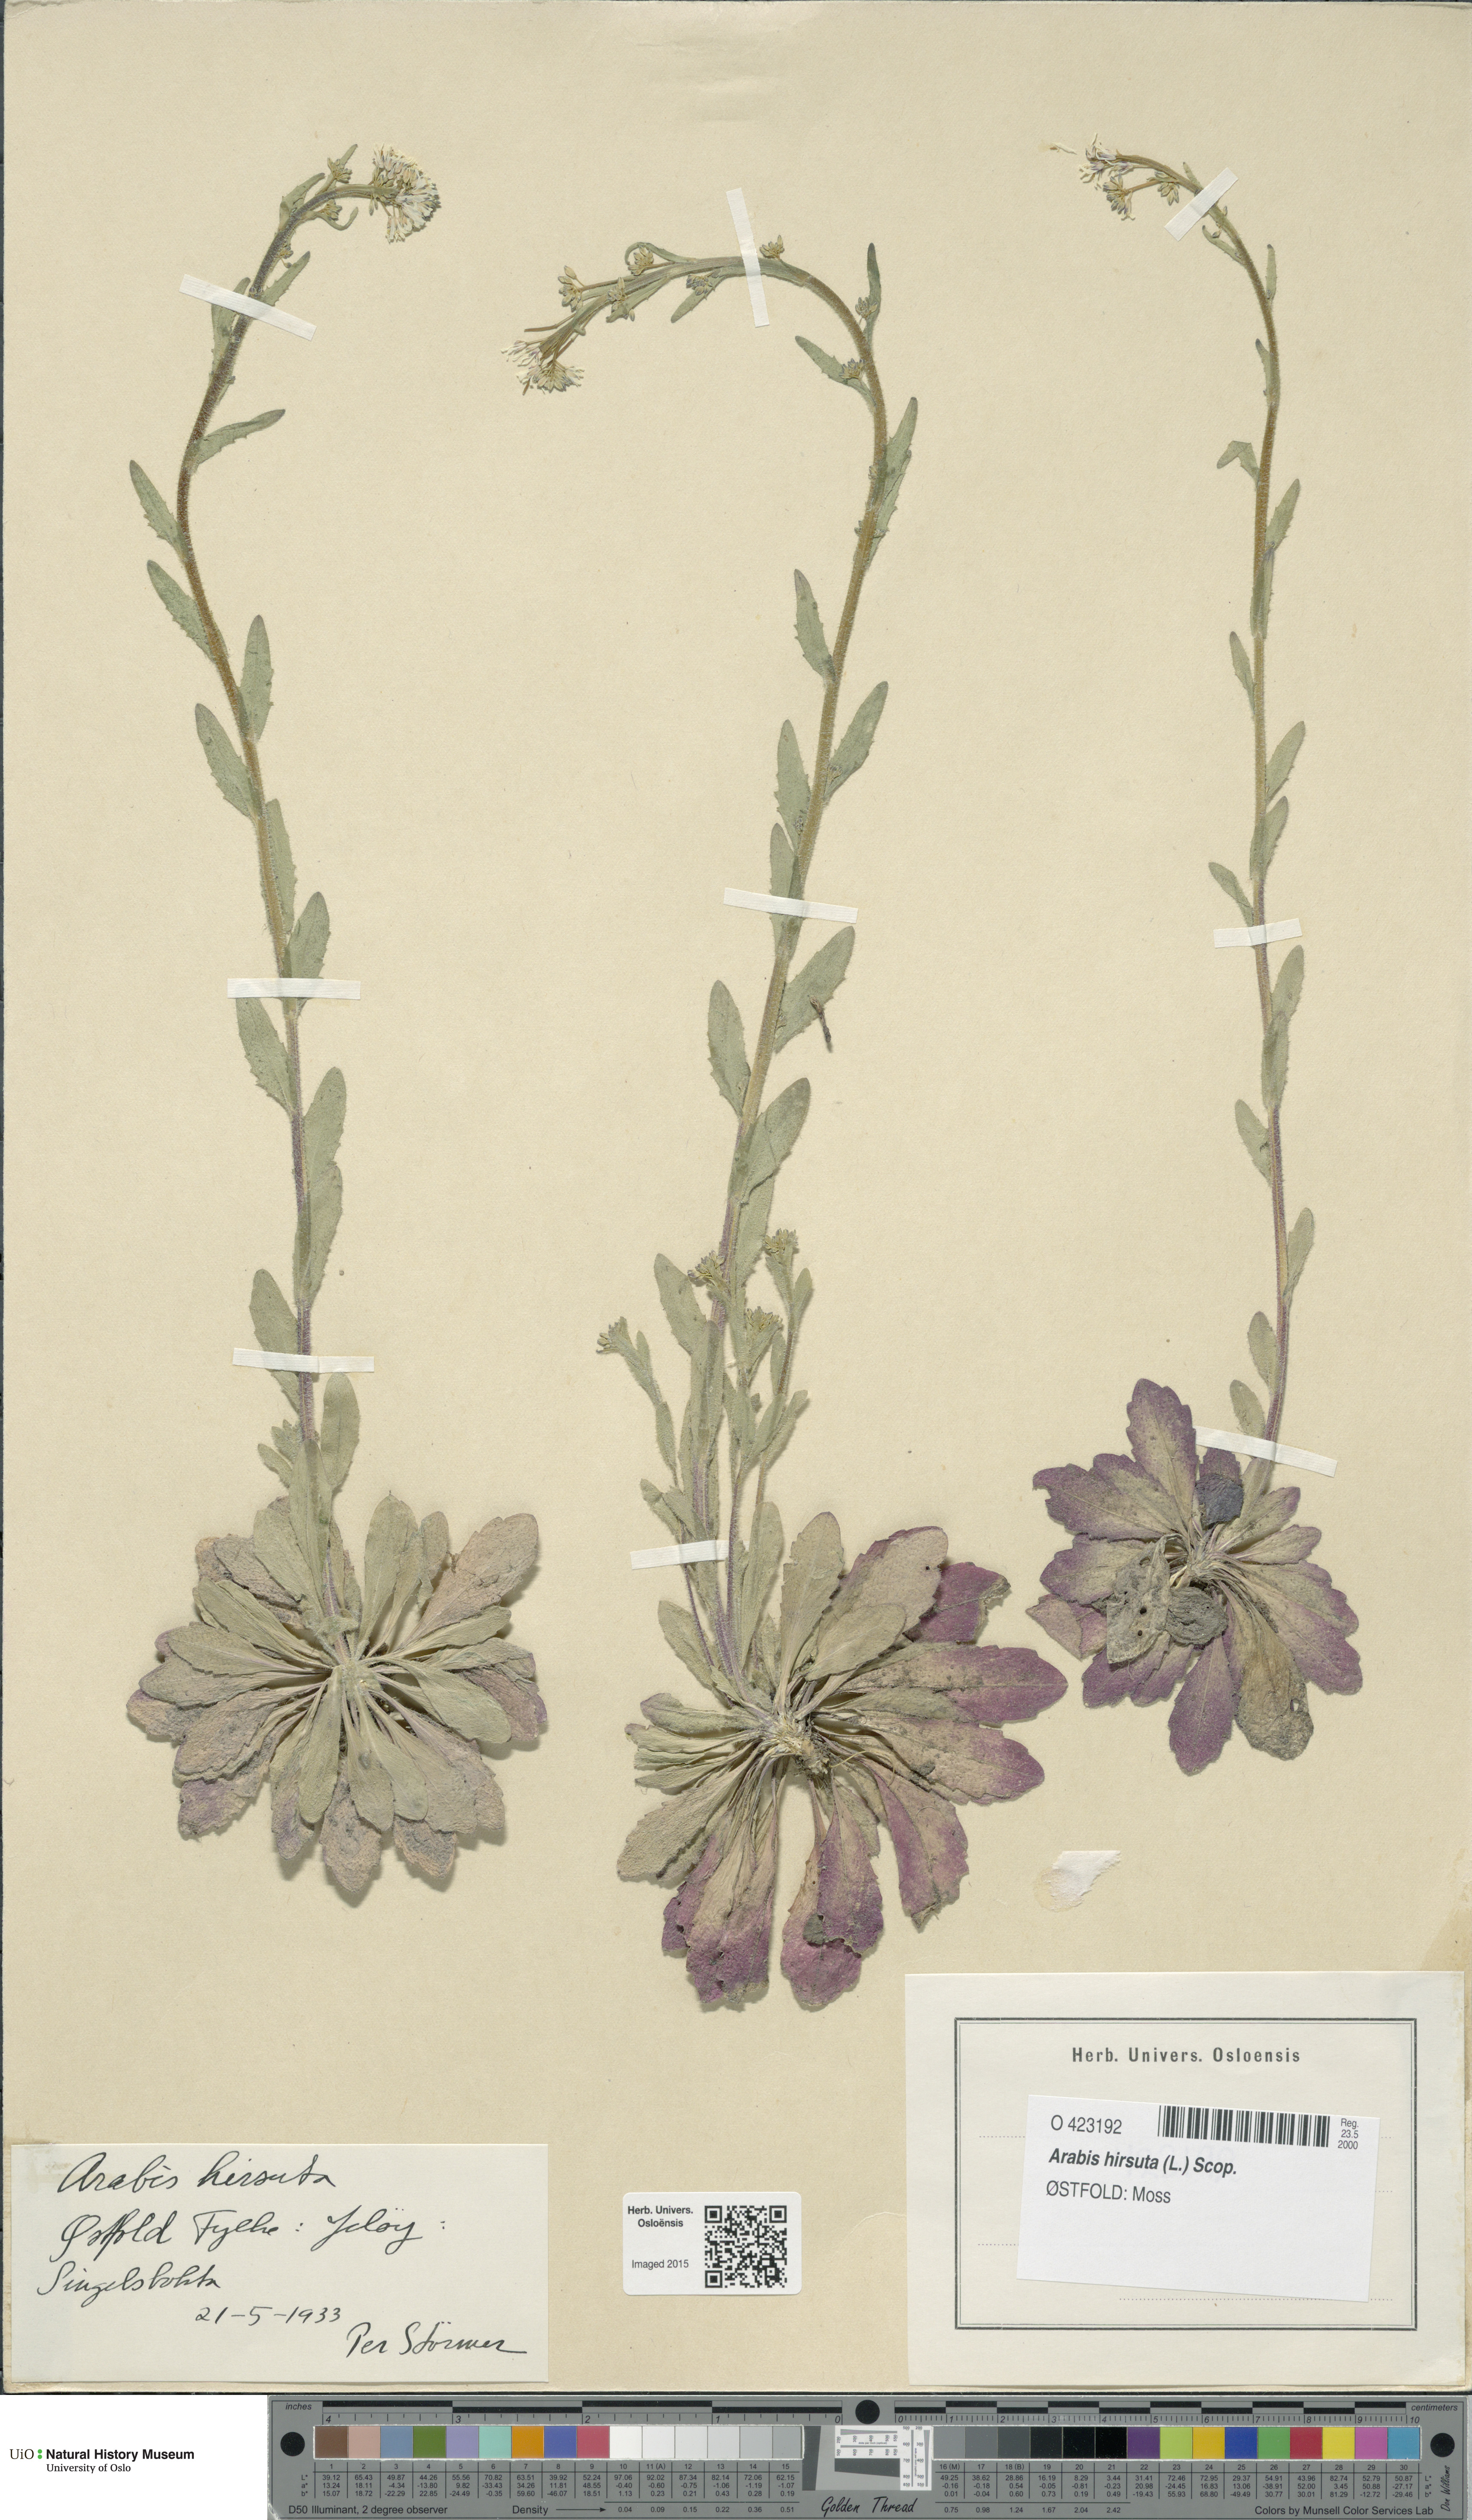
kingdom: Plantae
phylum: Tracheophyta
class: Magnoliopsida
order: Brassicales
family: Brassicaceae
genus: Arabis
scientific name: Arabis hirsuta
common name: Hairy rock-cress
